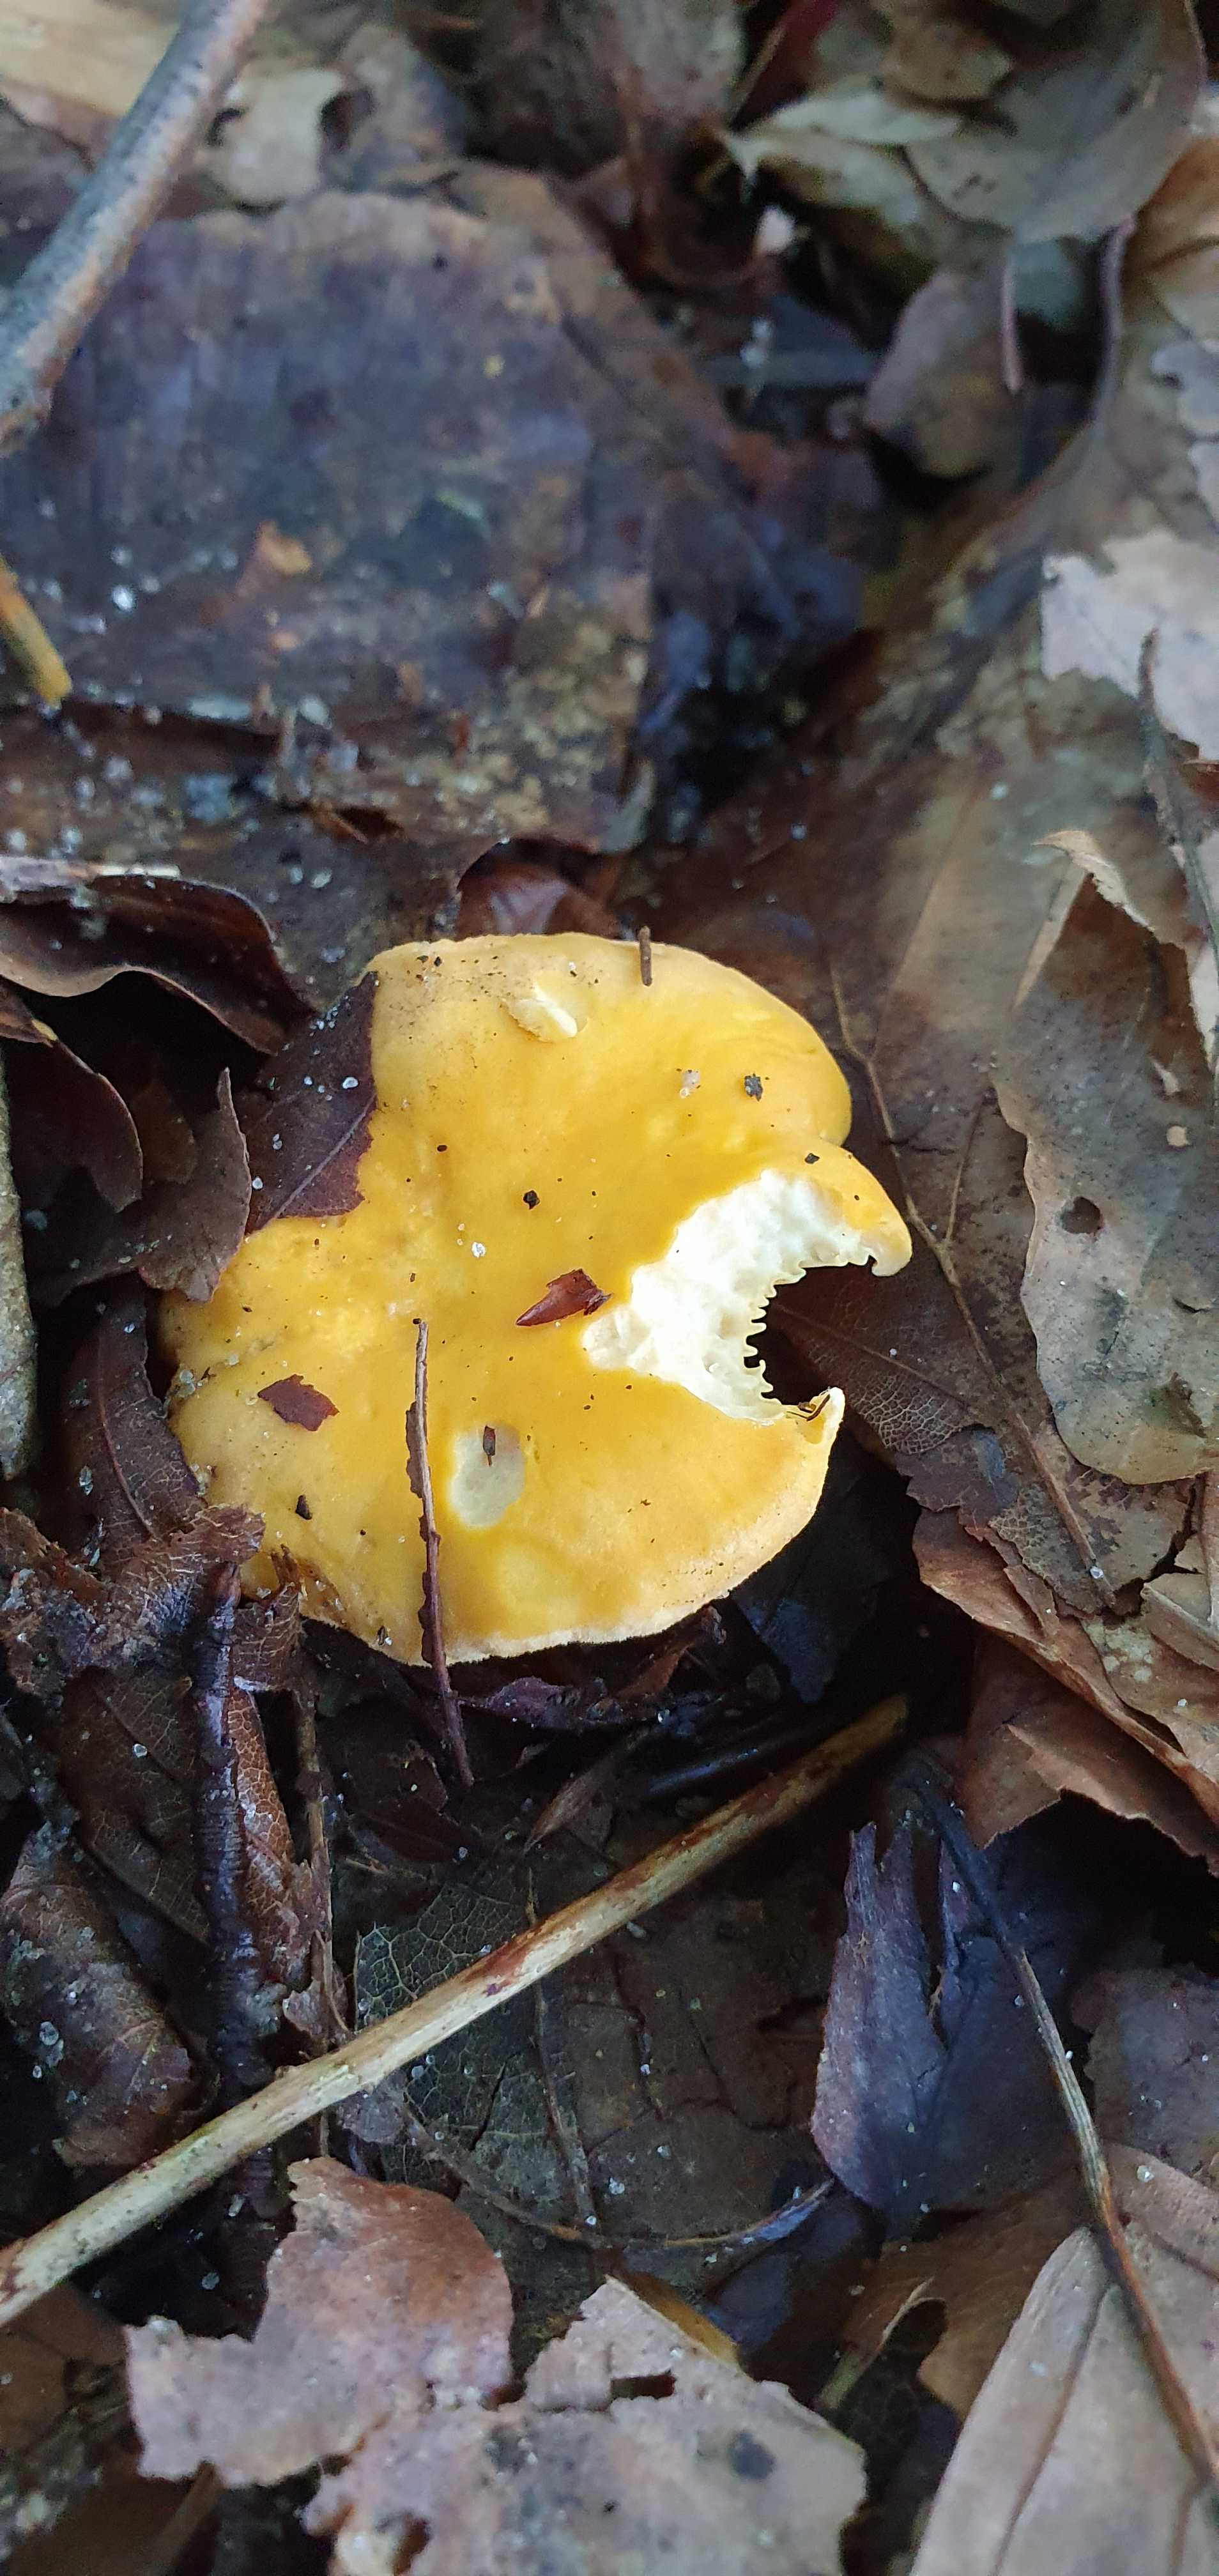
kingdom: Fungi
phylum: Basidiomycota
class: Agaricomycetes
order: Cantharellales
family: Hydnaceae
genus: Cantharellus
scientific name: Cantharellus cibarius
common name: almindelig kantarel
